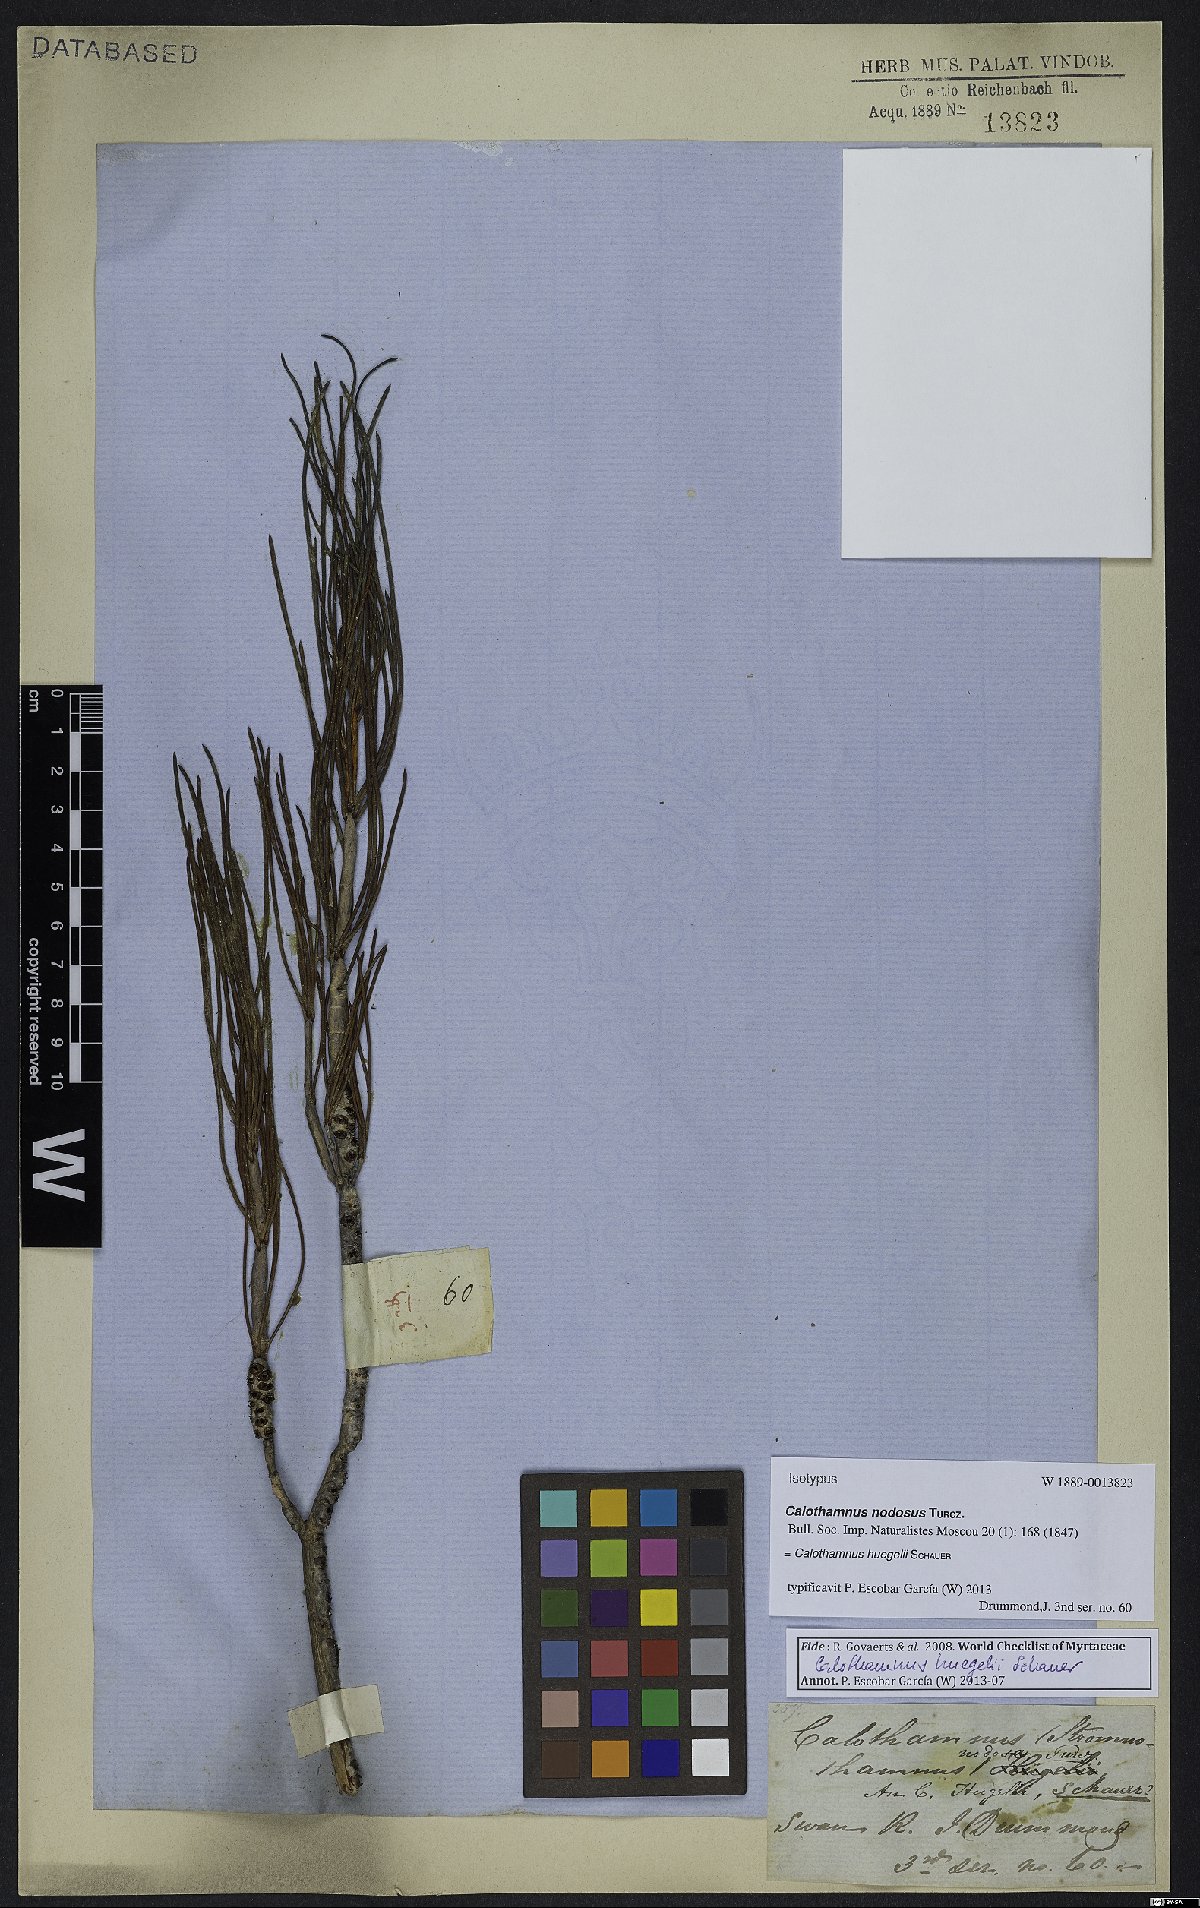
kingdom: Plantae
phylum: Tracheophyta
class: Magnoliopsida
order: Myrtales
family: Myrtaceae
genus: Melaleuca
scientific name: Melaleuca caroli-huegelii
